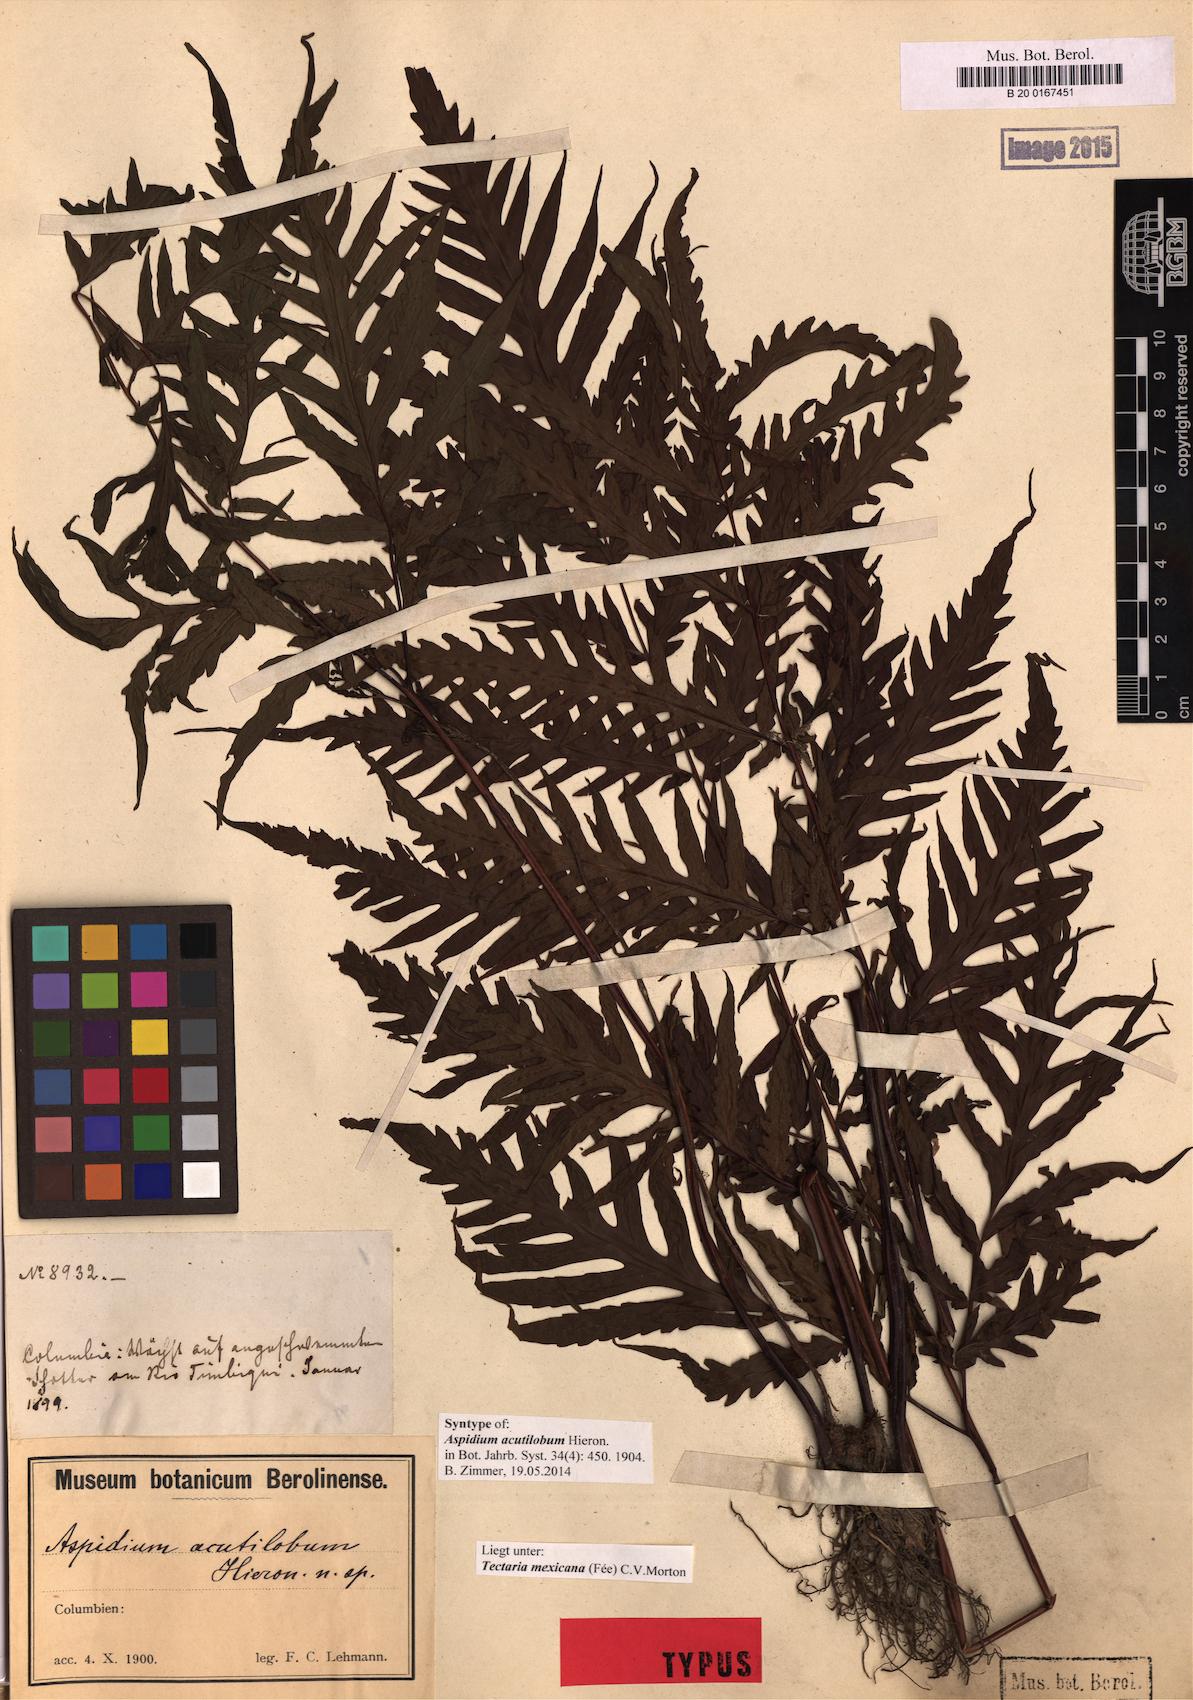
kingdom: Plantae
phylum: Tracheophyta
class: Polypodiopsida
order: Polypodiales
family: Tectariaceae
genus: Tectaria
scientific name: Tectaria mexicana
